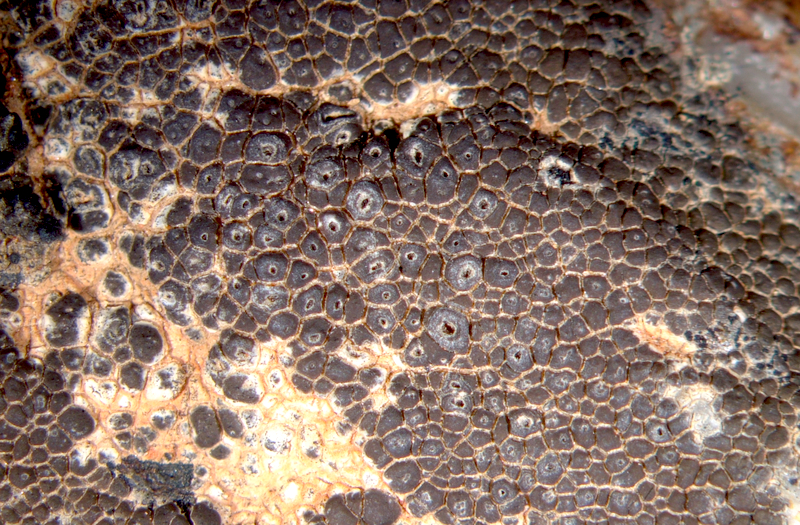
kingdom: Fungi
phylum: Ascomycota
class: Lecanoromycetes
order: Caliciales
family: Caliciaceae
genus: Tetramelas
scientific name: Tetramelas concinnus
